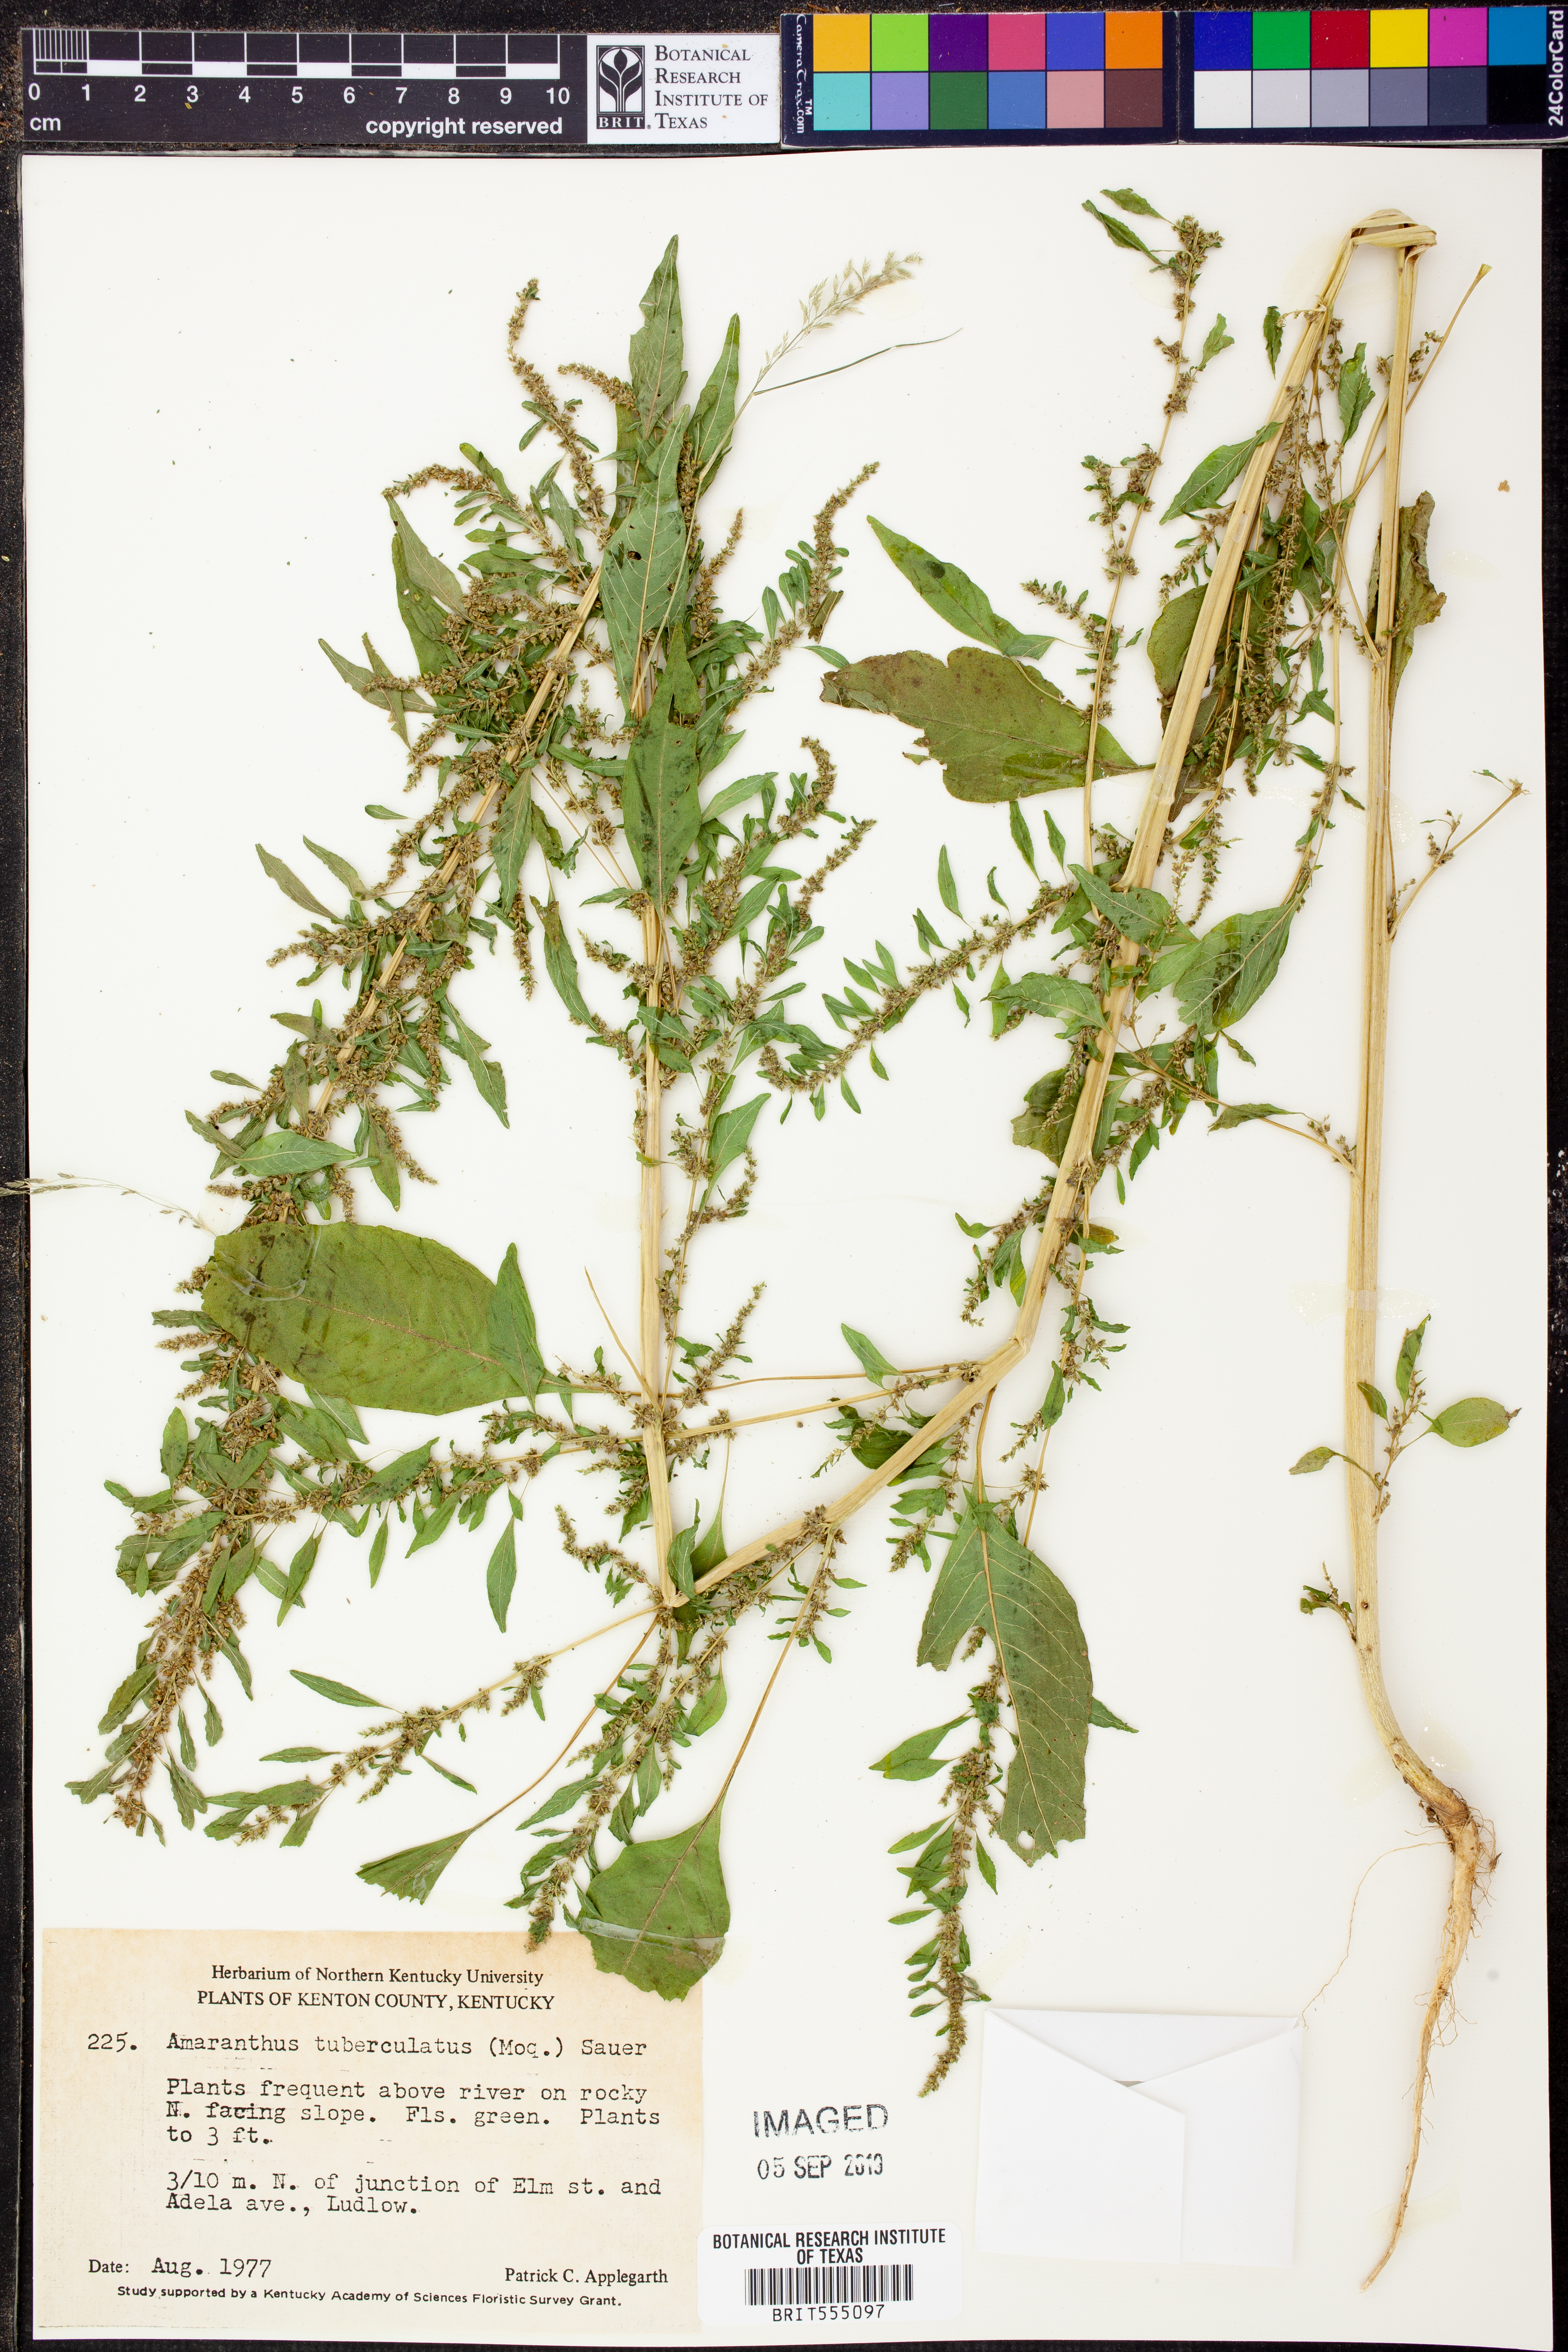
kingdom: Plantae
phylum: Tracheophyta
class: Magnoliopsida
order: Caryophyllales
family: Amaranthaceae
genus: Amaranthus
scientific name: Amaranthus tuberculatus
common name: Rough-fruit amaranth
